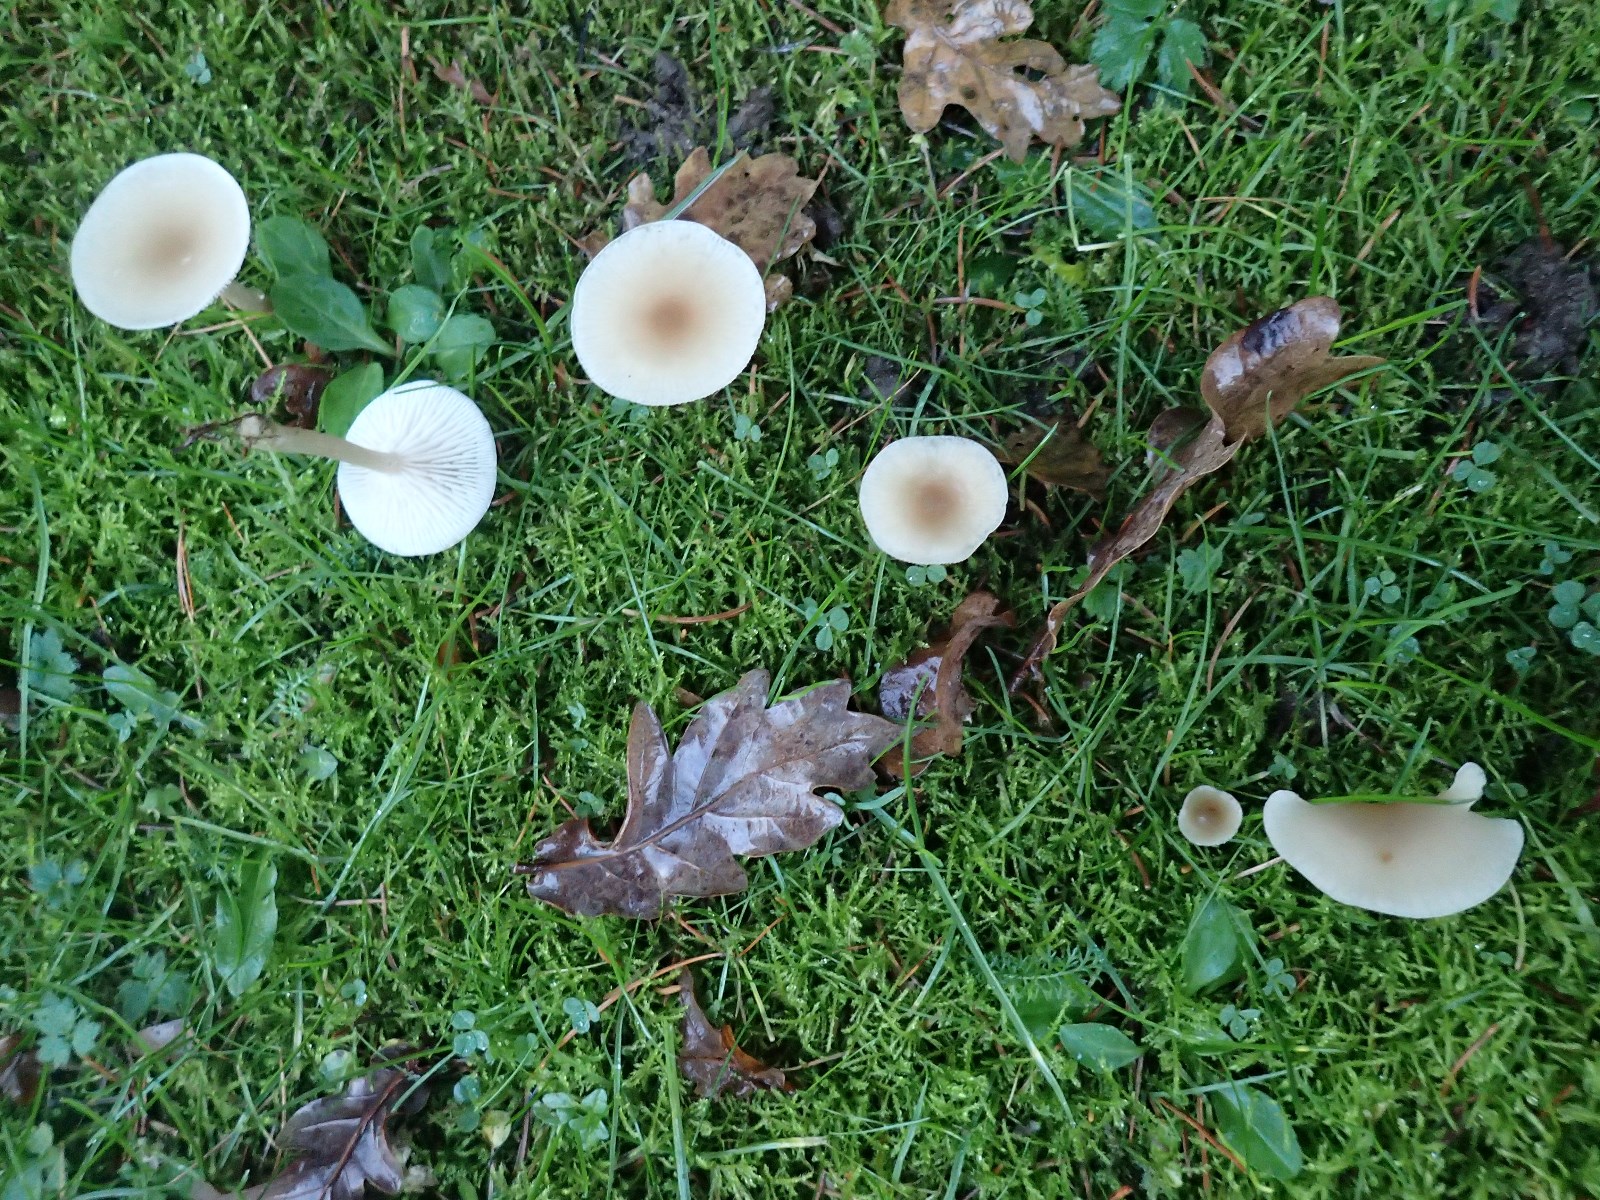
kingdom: Fungi
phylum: Basidiomycota
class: Agaricomycetes
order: Agaricales
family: Tricholomataceae
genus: Clitocybe
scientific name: Clitocybe fragrans
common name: vellugtende tragthat
